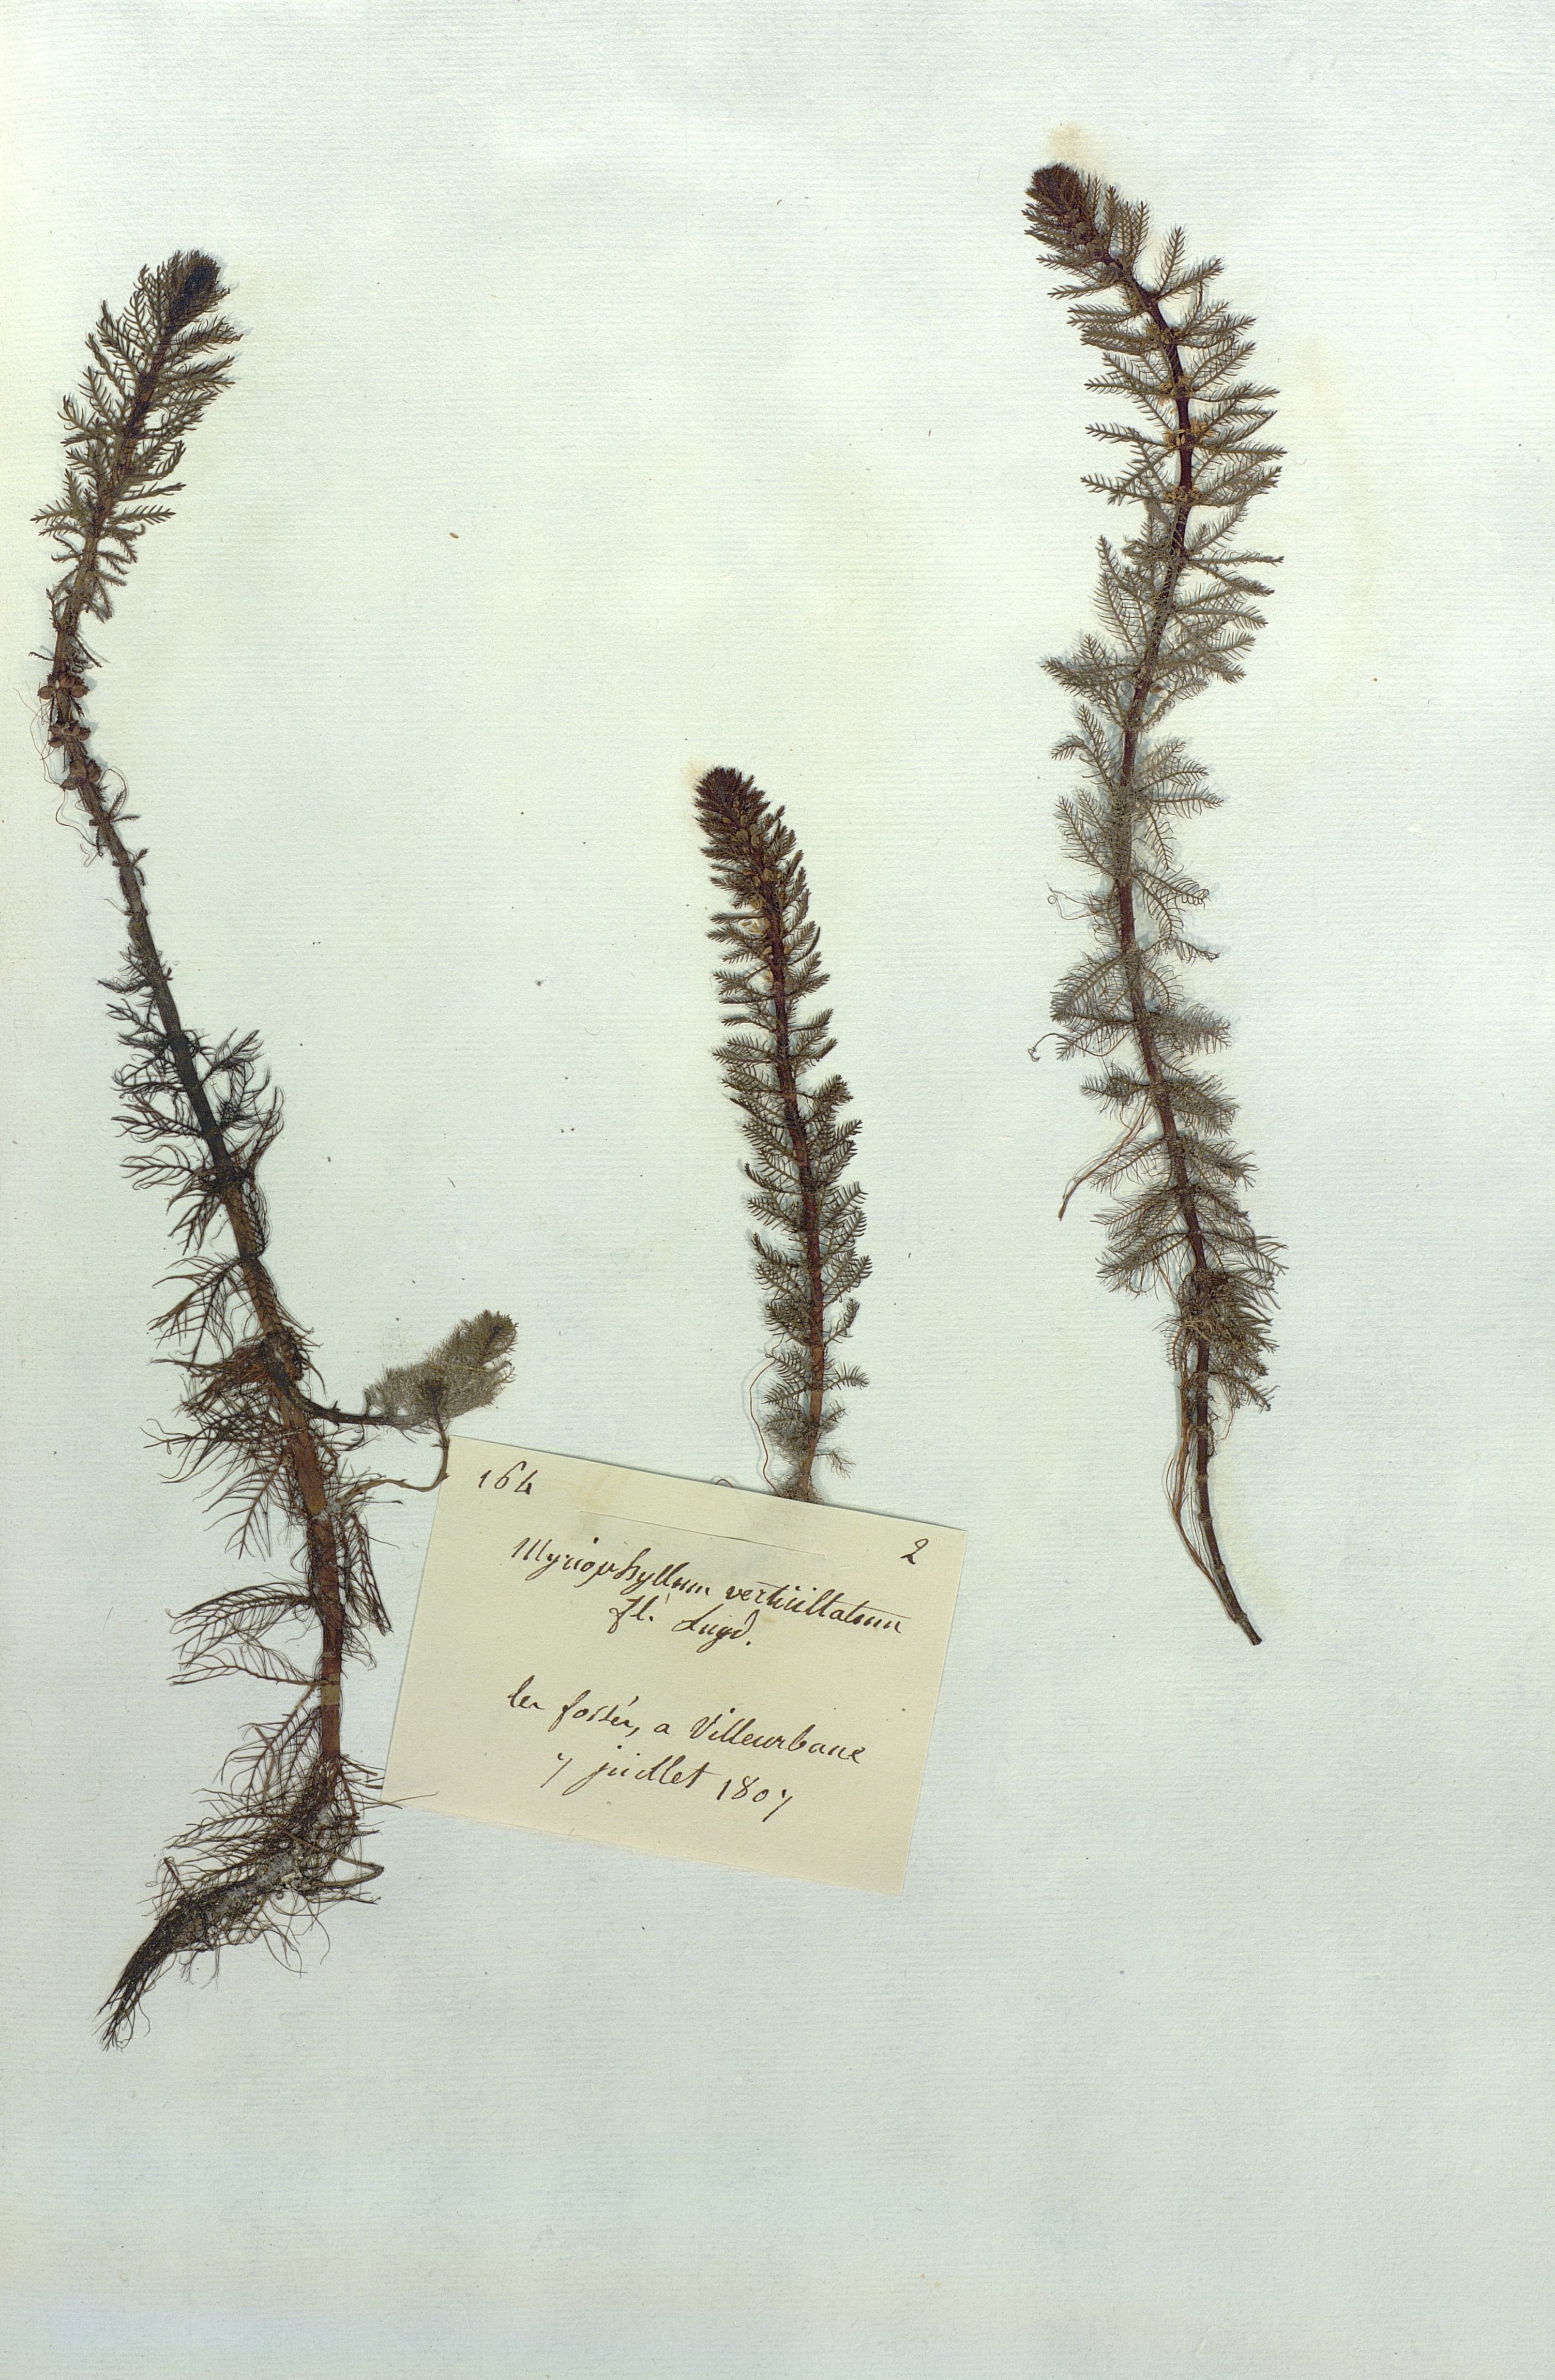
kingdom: Plantae
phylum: Tracheophyta
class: Magnoliopsida
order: Saxifragales
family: Haloragaceae
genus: Myriophyllum
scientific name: Myriophyllum verticillatum
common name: Whorled water-milfoil
